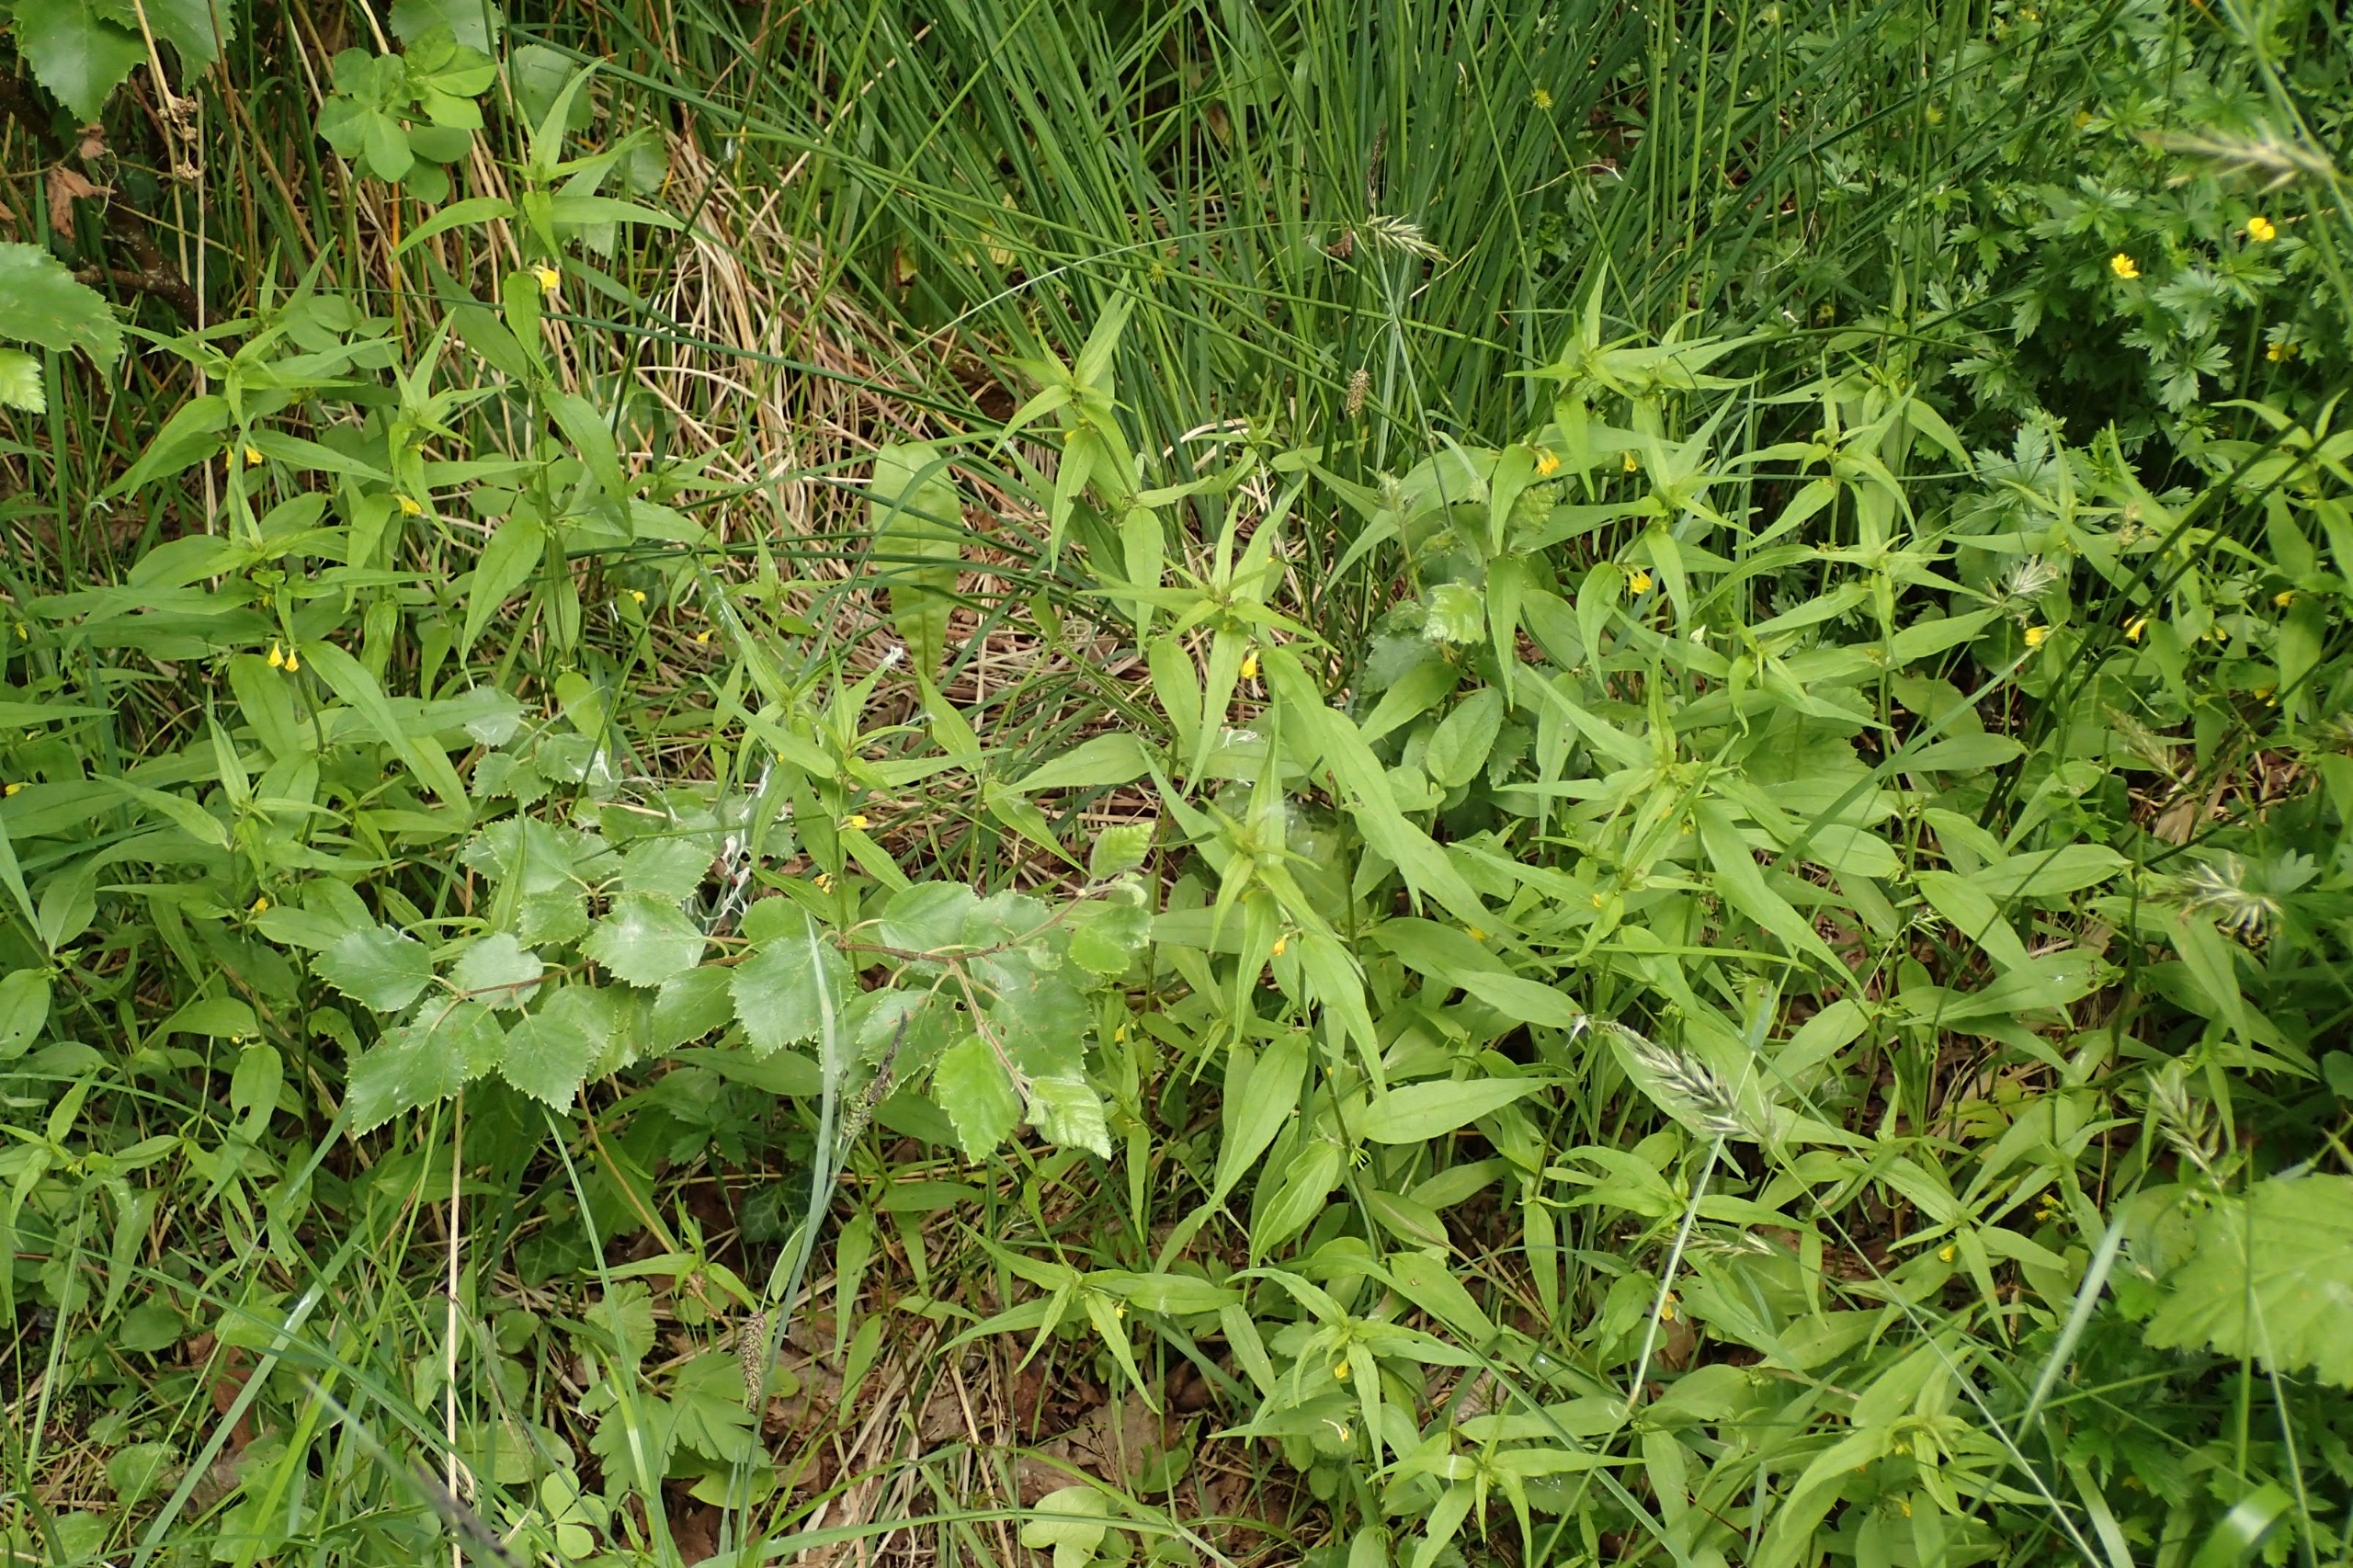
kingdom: Plantae
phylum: Tracheophyta
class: Magnoliopsida
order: Lamiales
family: Orobanchaceae
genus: Melampyrum
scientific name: Melampyrum sylvaticum
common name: Skov-kohvede
